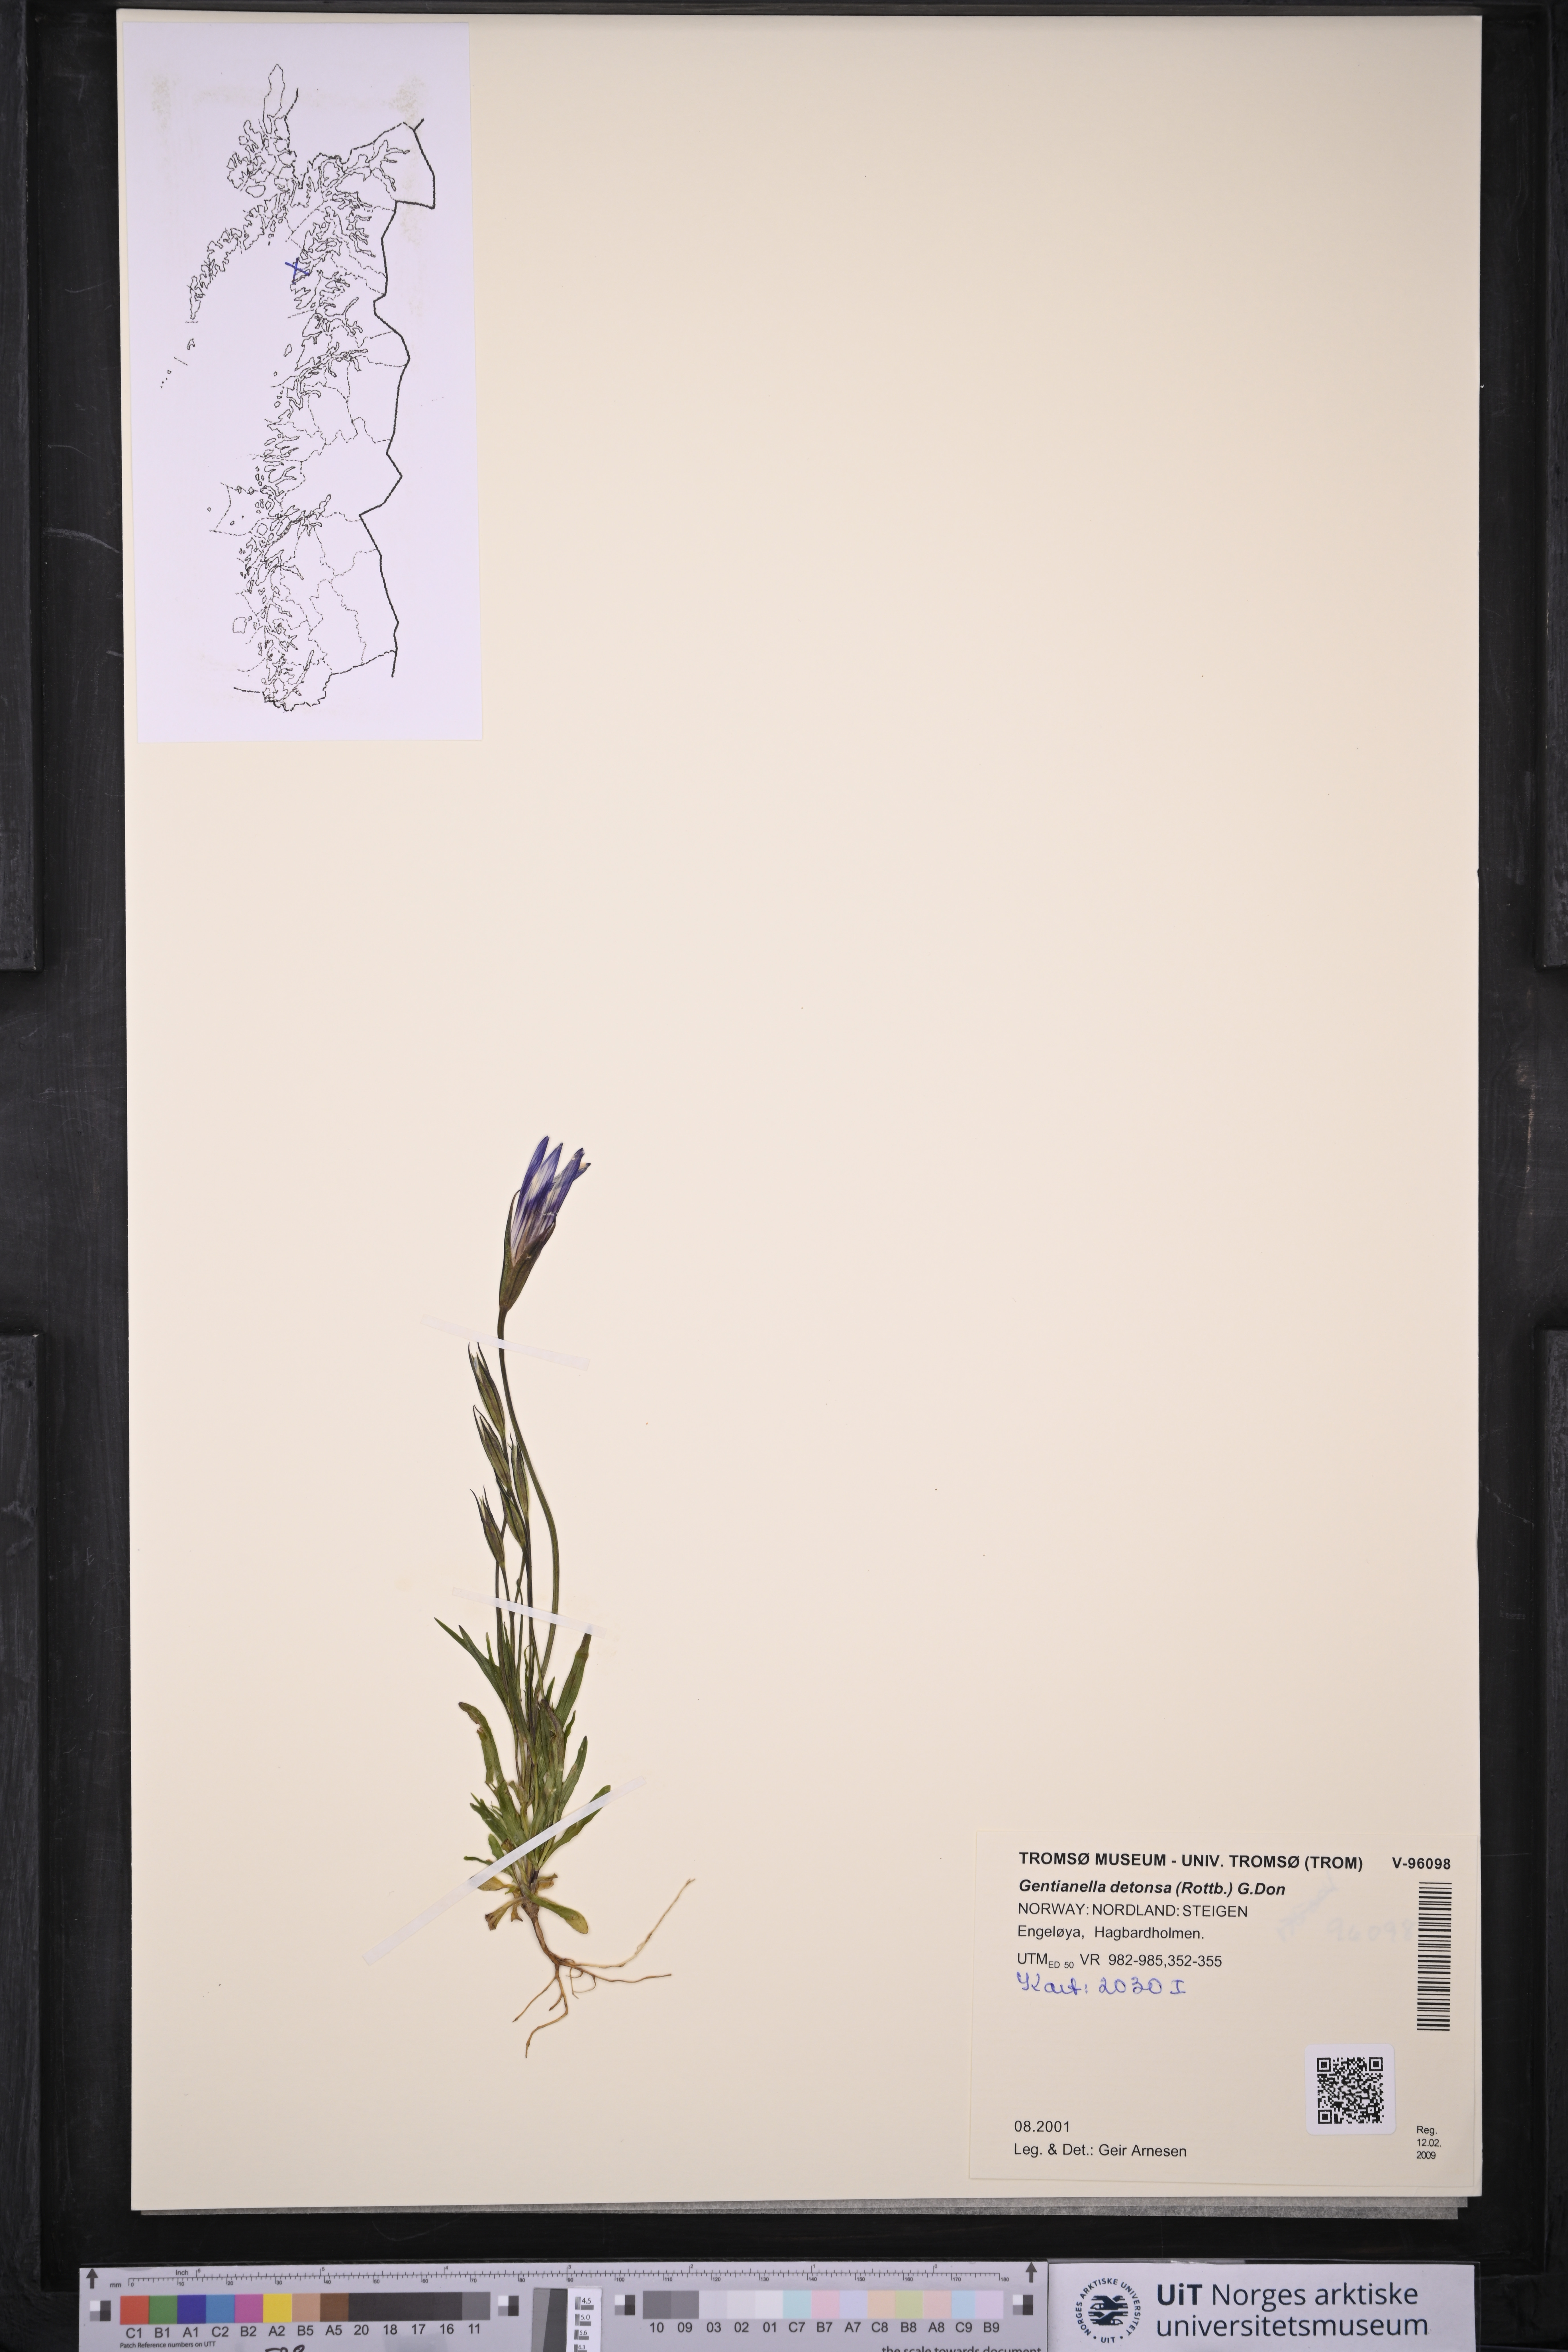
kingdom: Plantae
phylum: Tracheophyta
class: Magnoliopsida
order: Gentianales
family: Gentianaceae
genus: Gentianopsis
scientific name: Gentianopsis detonsa
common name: Fringed-gentian
